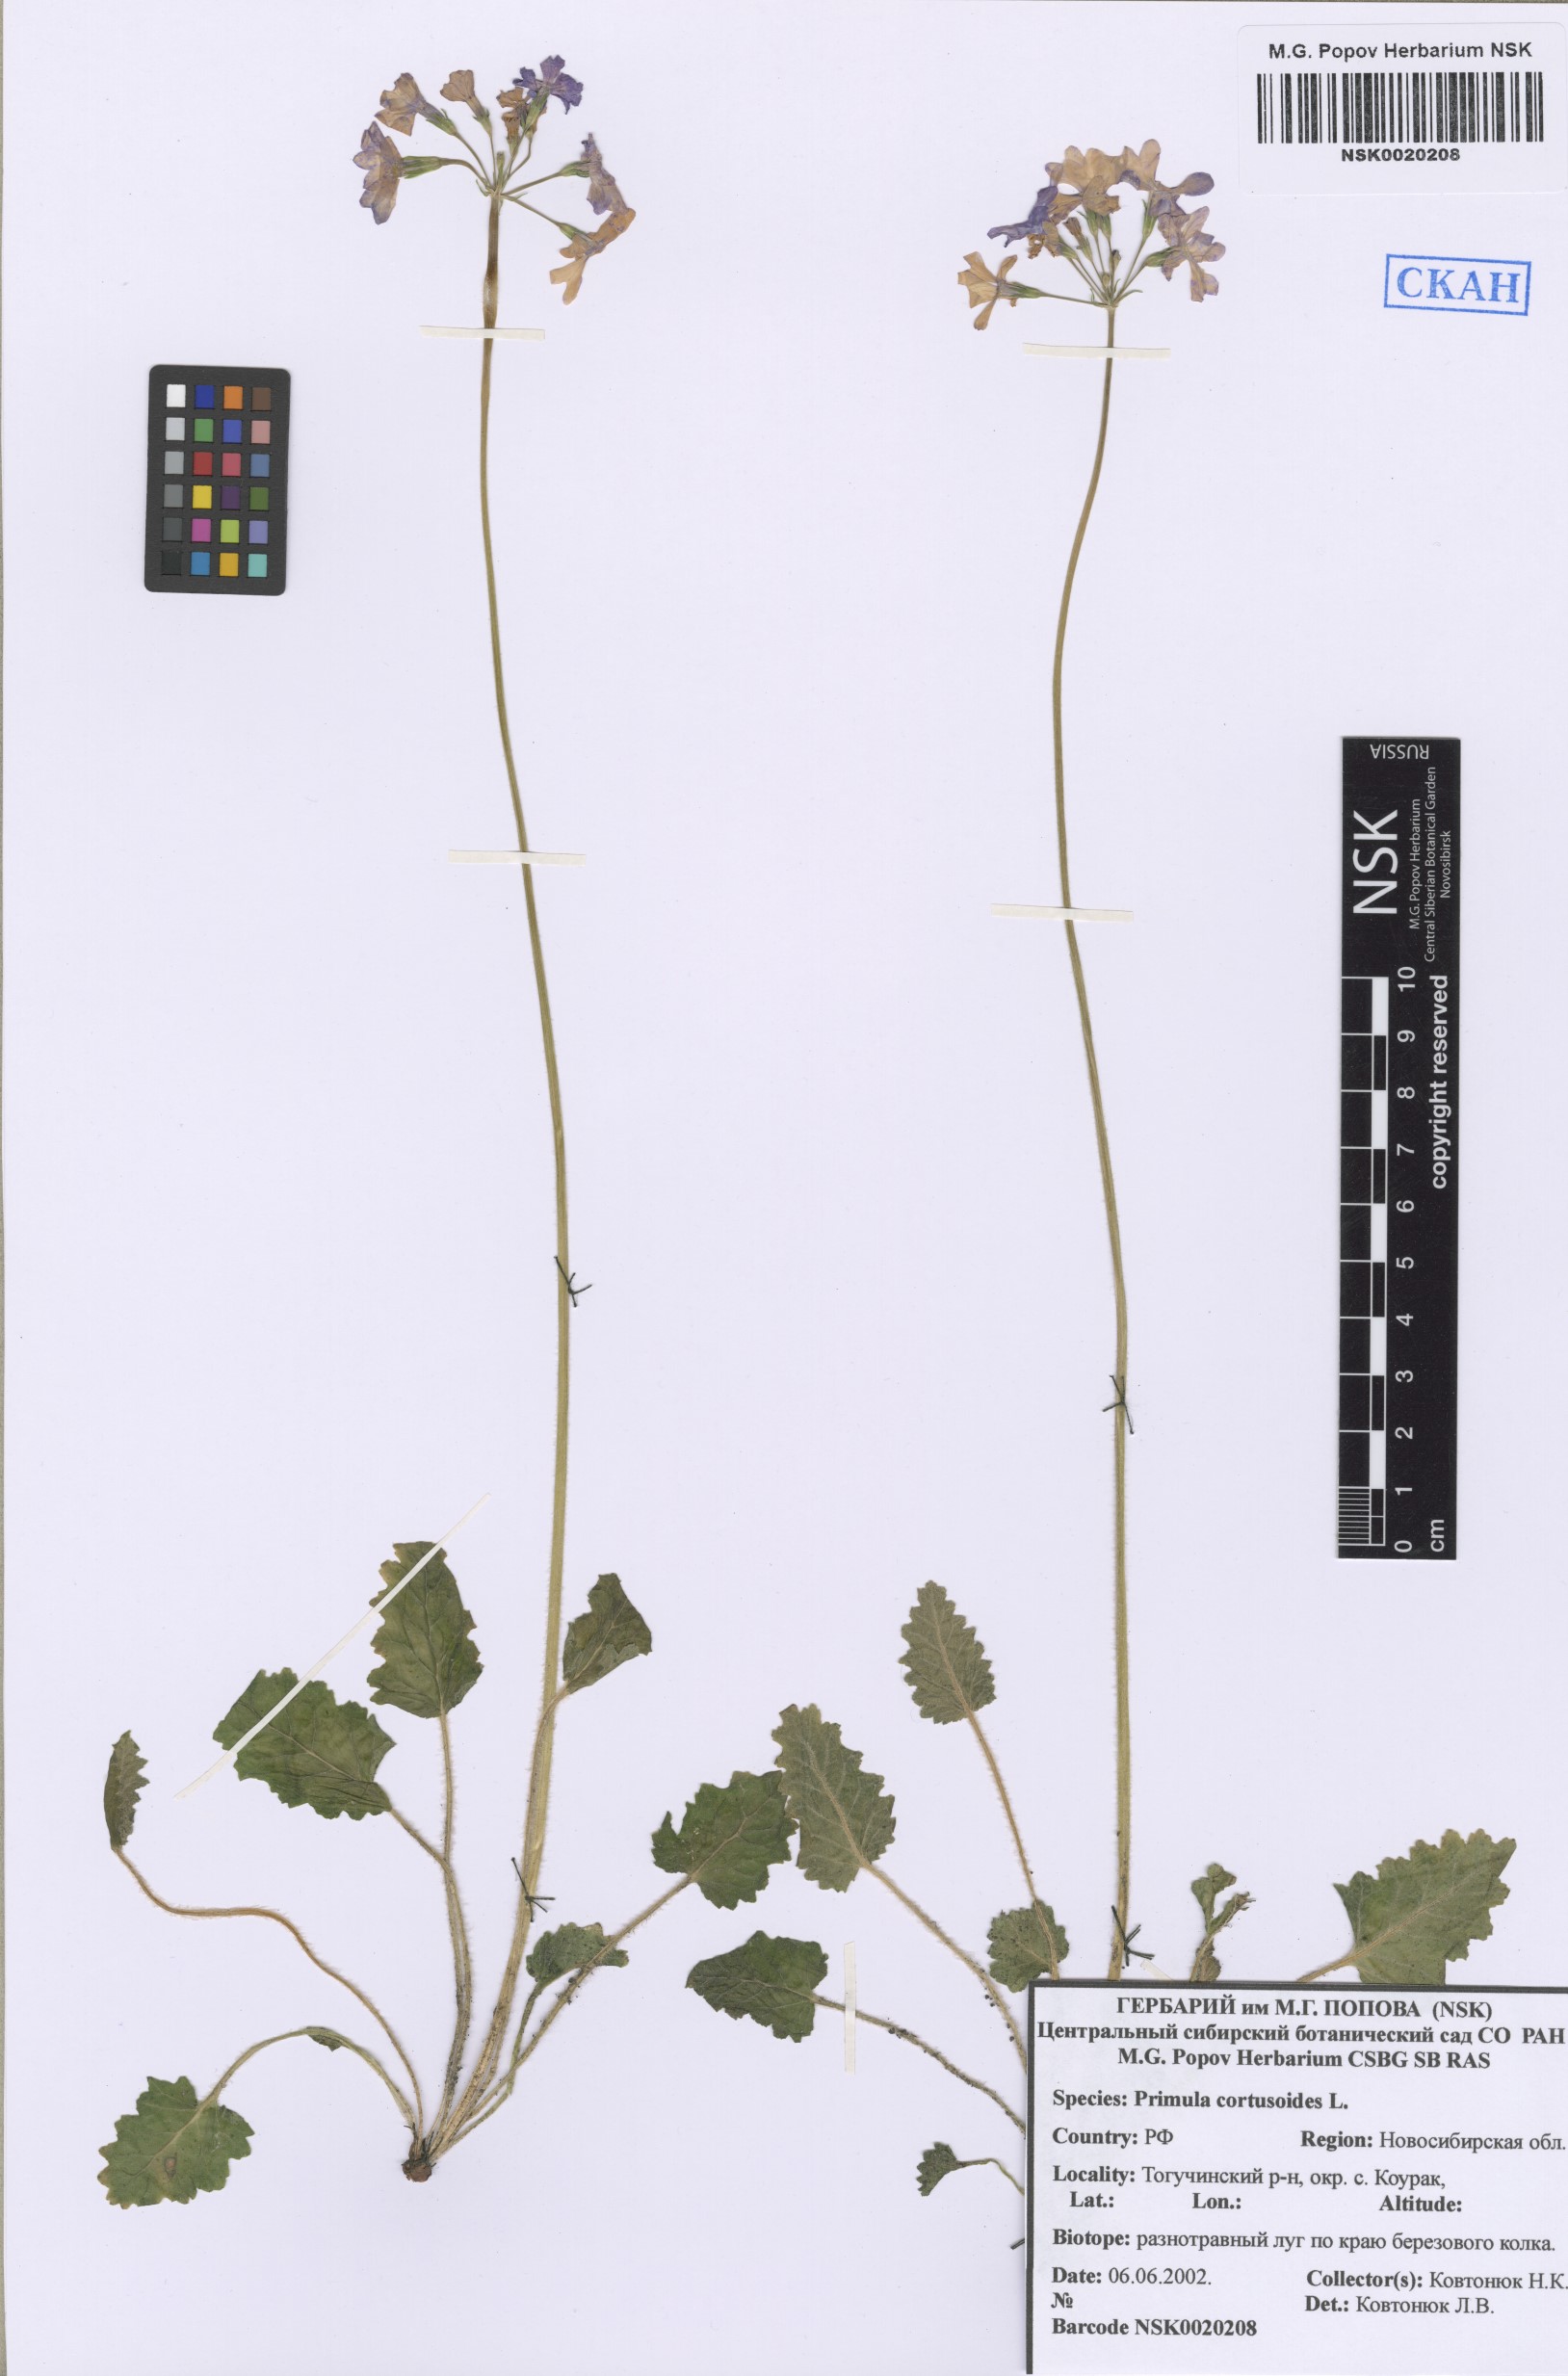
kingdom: Plantae
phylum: Tracheophyta
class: Magnoliopsida
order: Ericales
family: Primulaceae
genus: Primula
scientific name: Primula cortusoides
